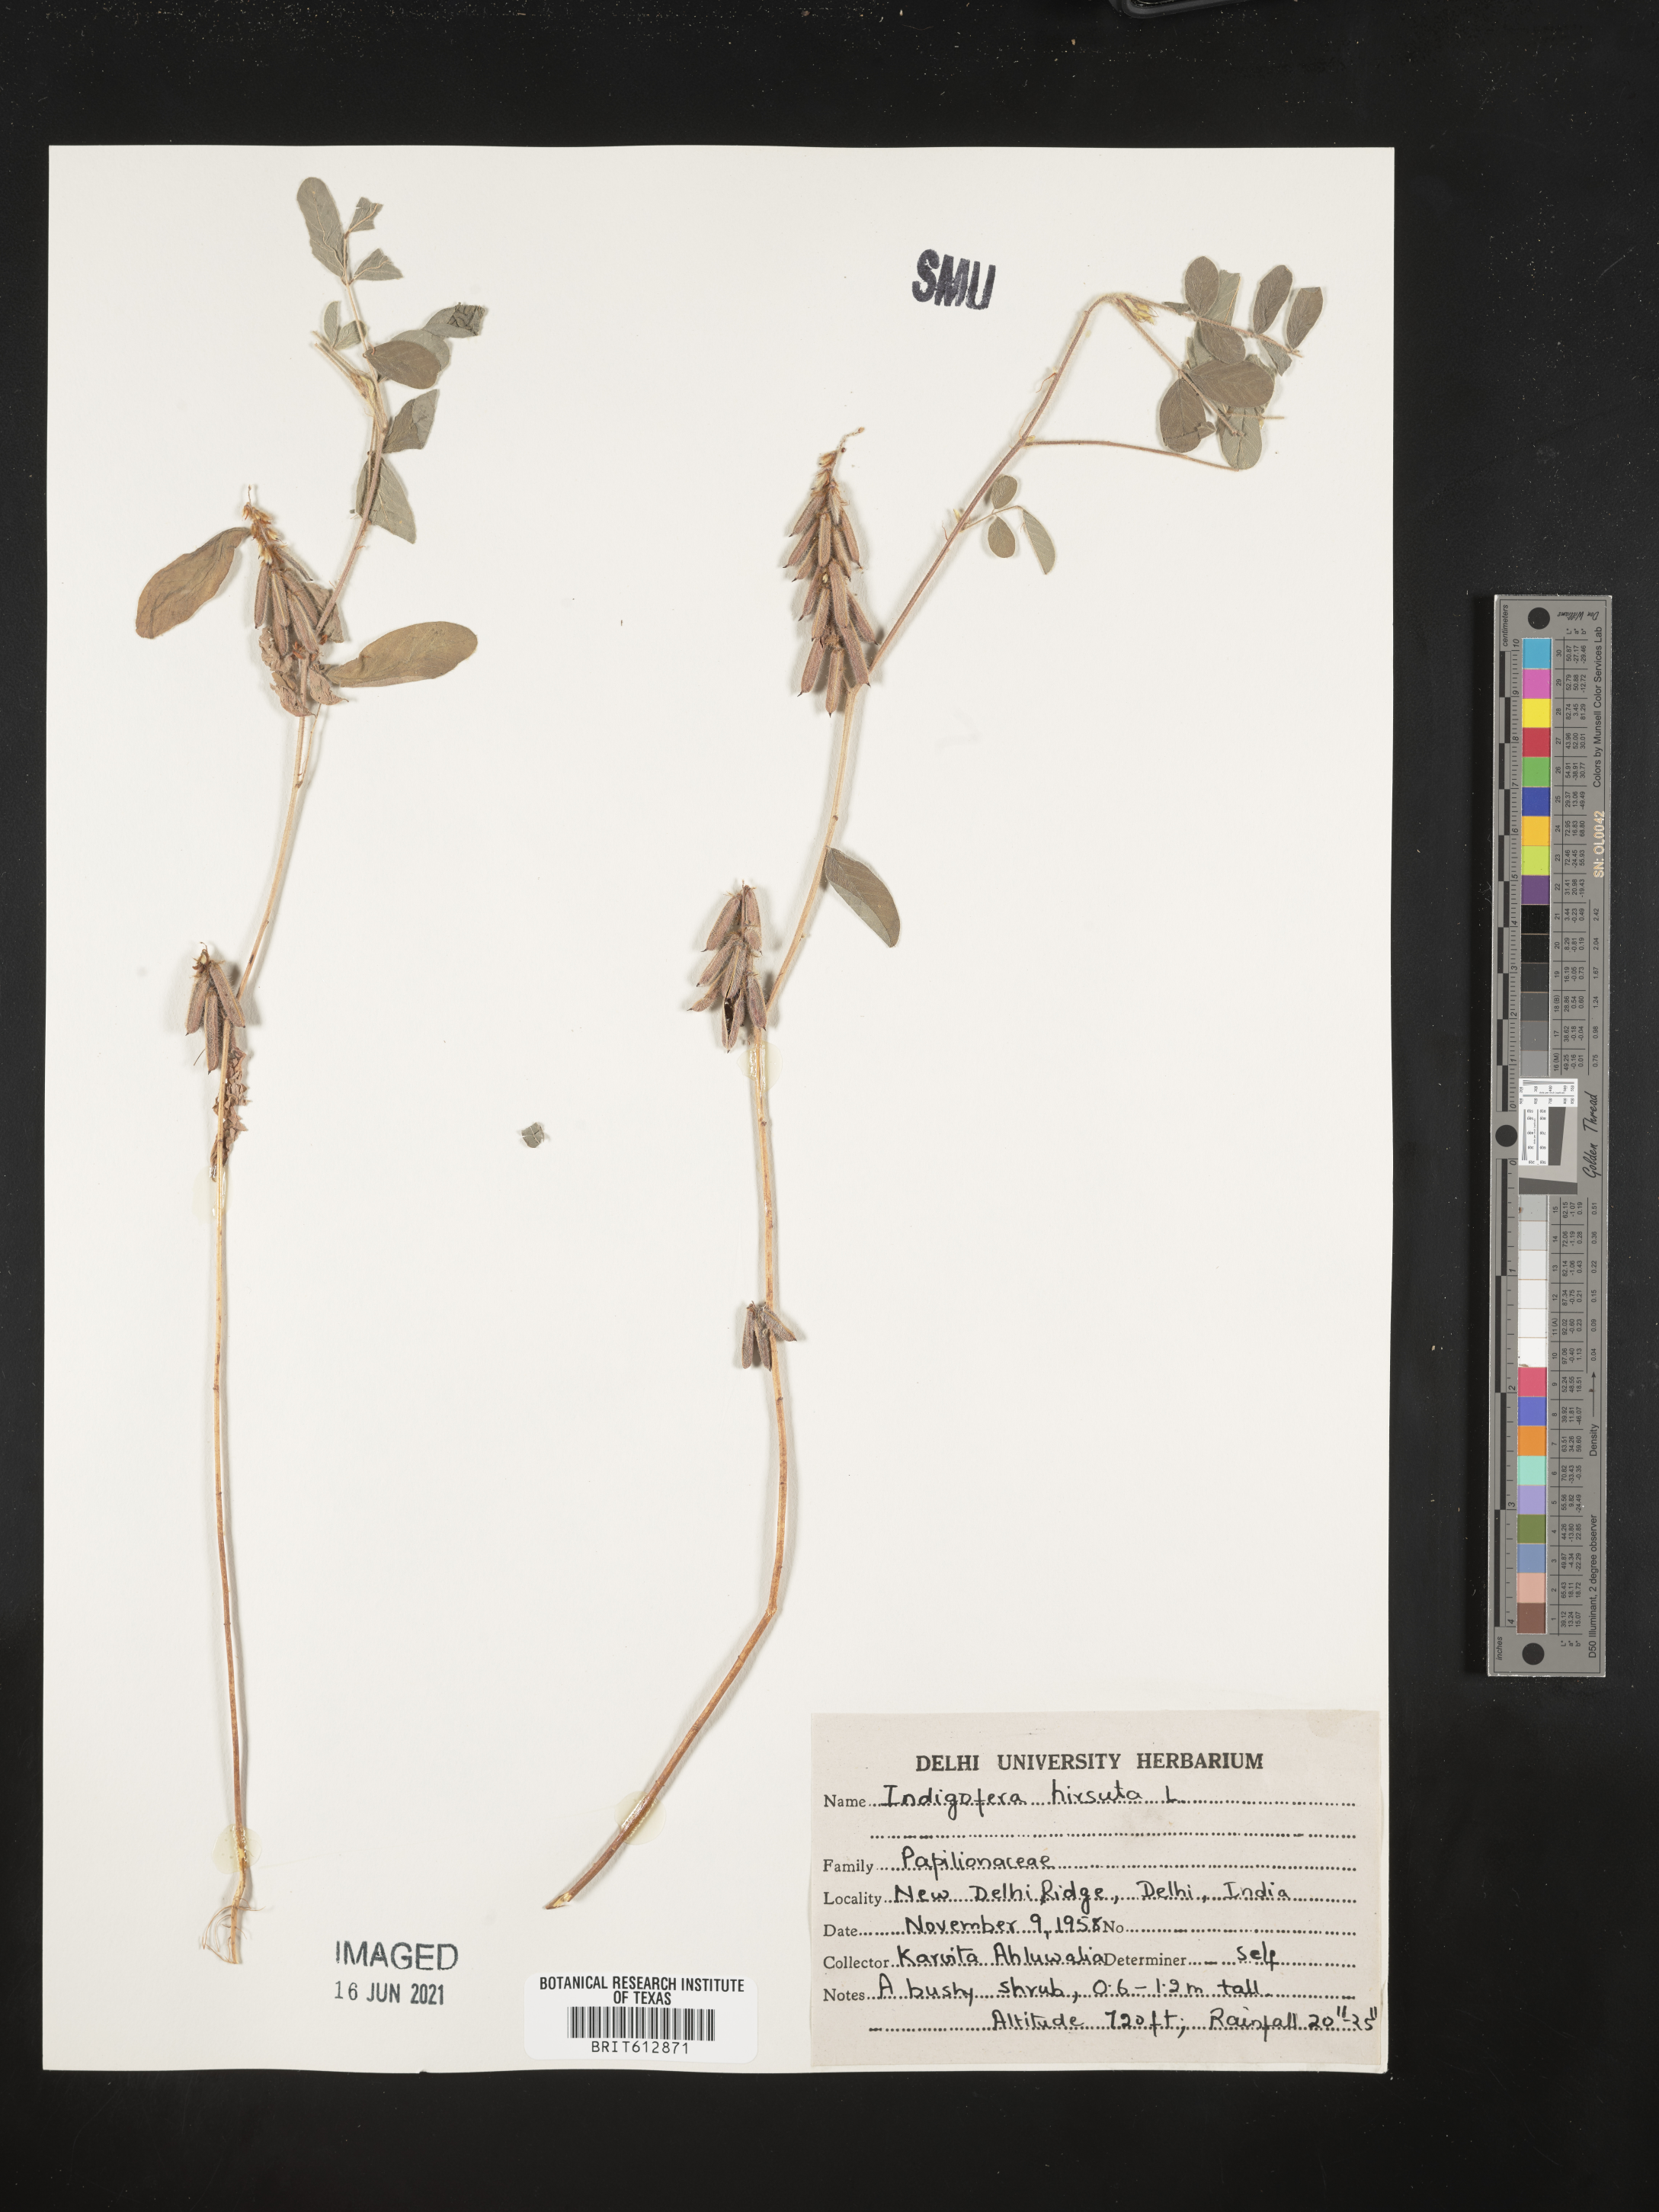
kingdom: Plantae
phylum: Tracheophyta
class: Magnoliopsida
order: Fabales
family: Fabaceae
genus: Indigofera
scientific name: Indigofera hirsuta
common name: Hairy indigo
